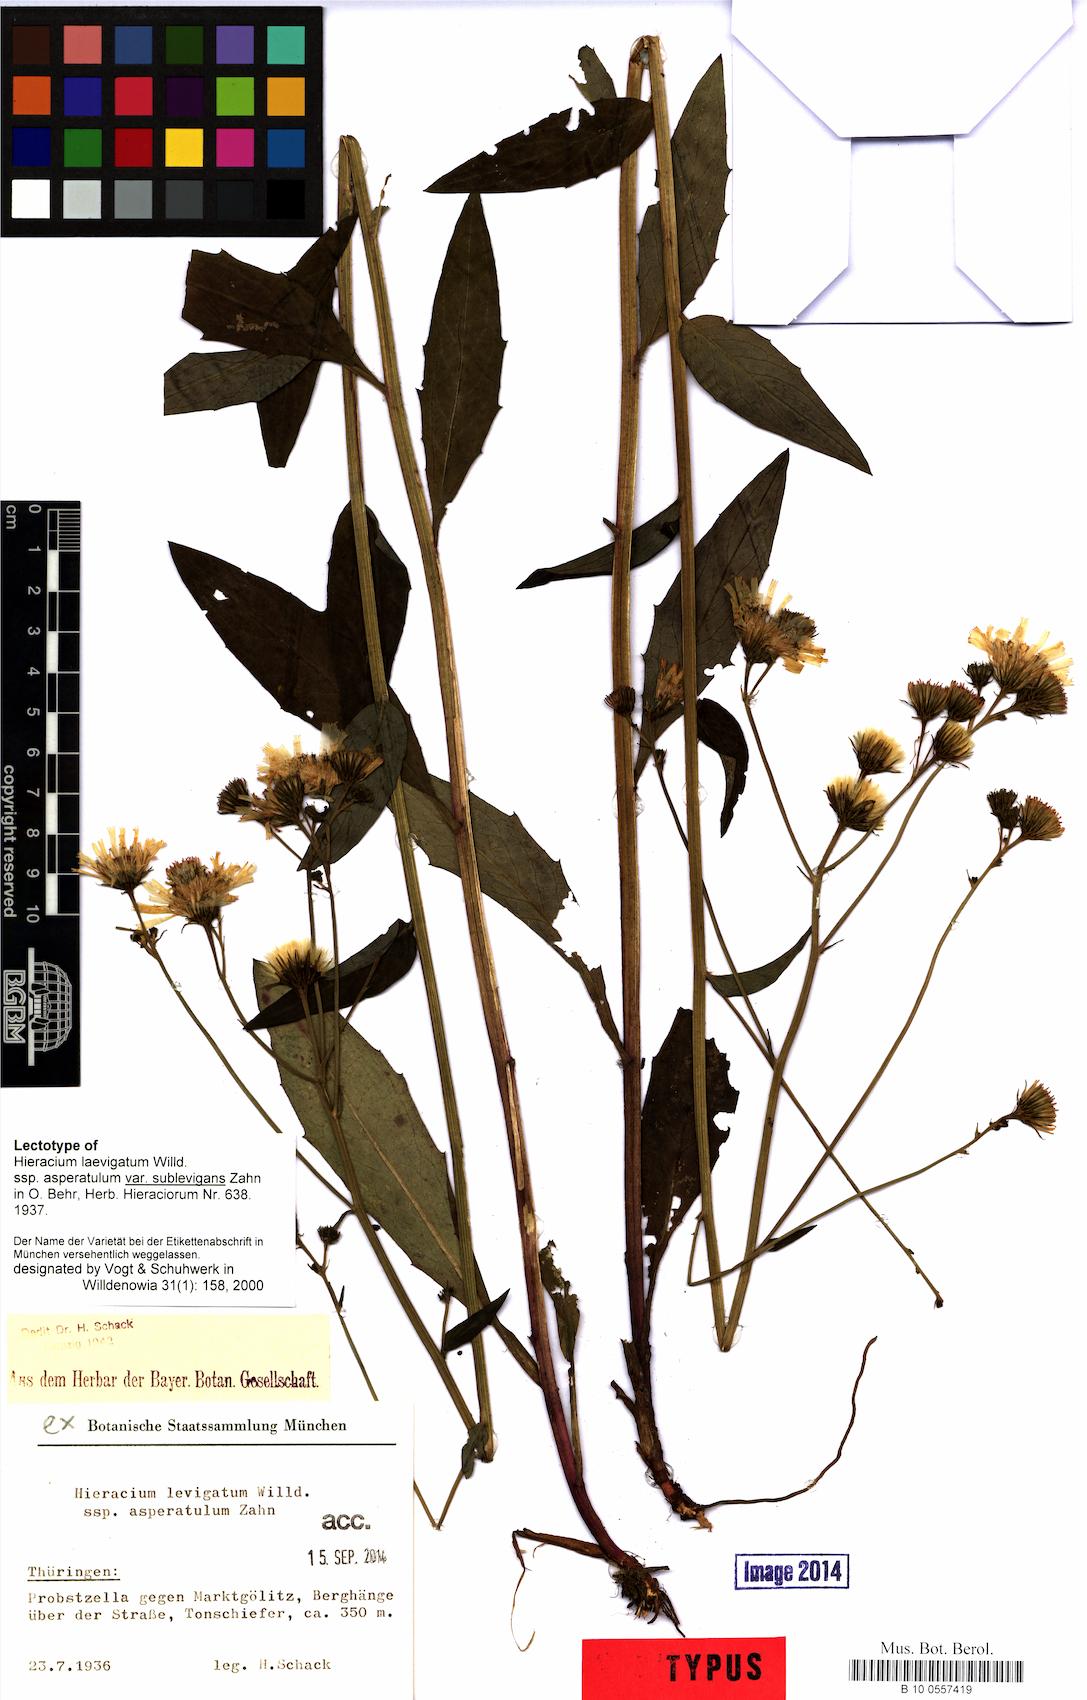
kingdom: Plantae
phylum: Tracheophyta
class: Magnoliopsida
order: Asterales
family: Asteraceae
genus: Hieracium
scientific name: Hieracium laevigatum
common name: Smooth hawkweed
